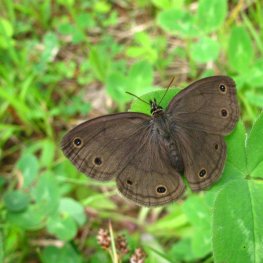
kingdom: Animalia
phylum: Arthropoda
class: Insecta
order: Lepidoptera
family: Nymphalidae
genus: Euptychia
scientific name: Euptychia cymela
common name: Little Wood Satyr
